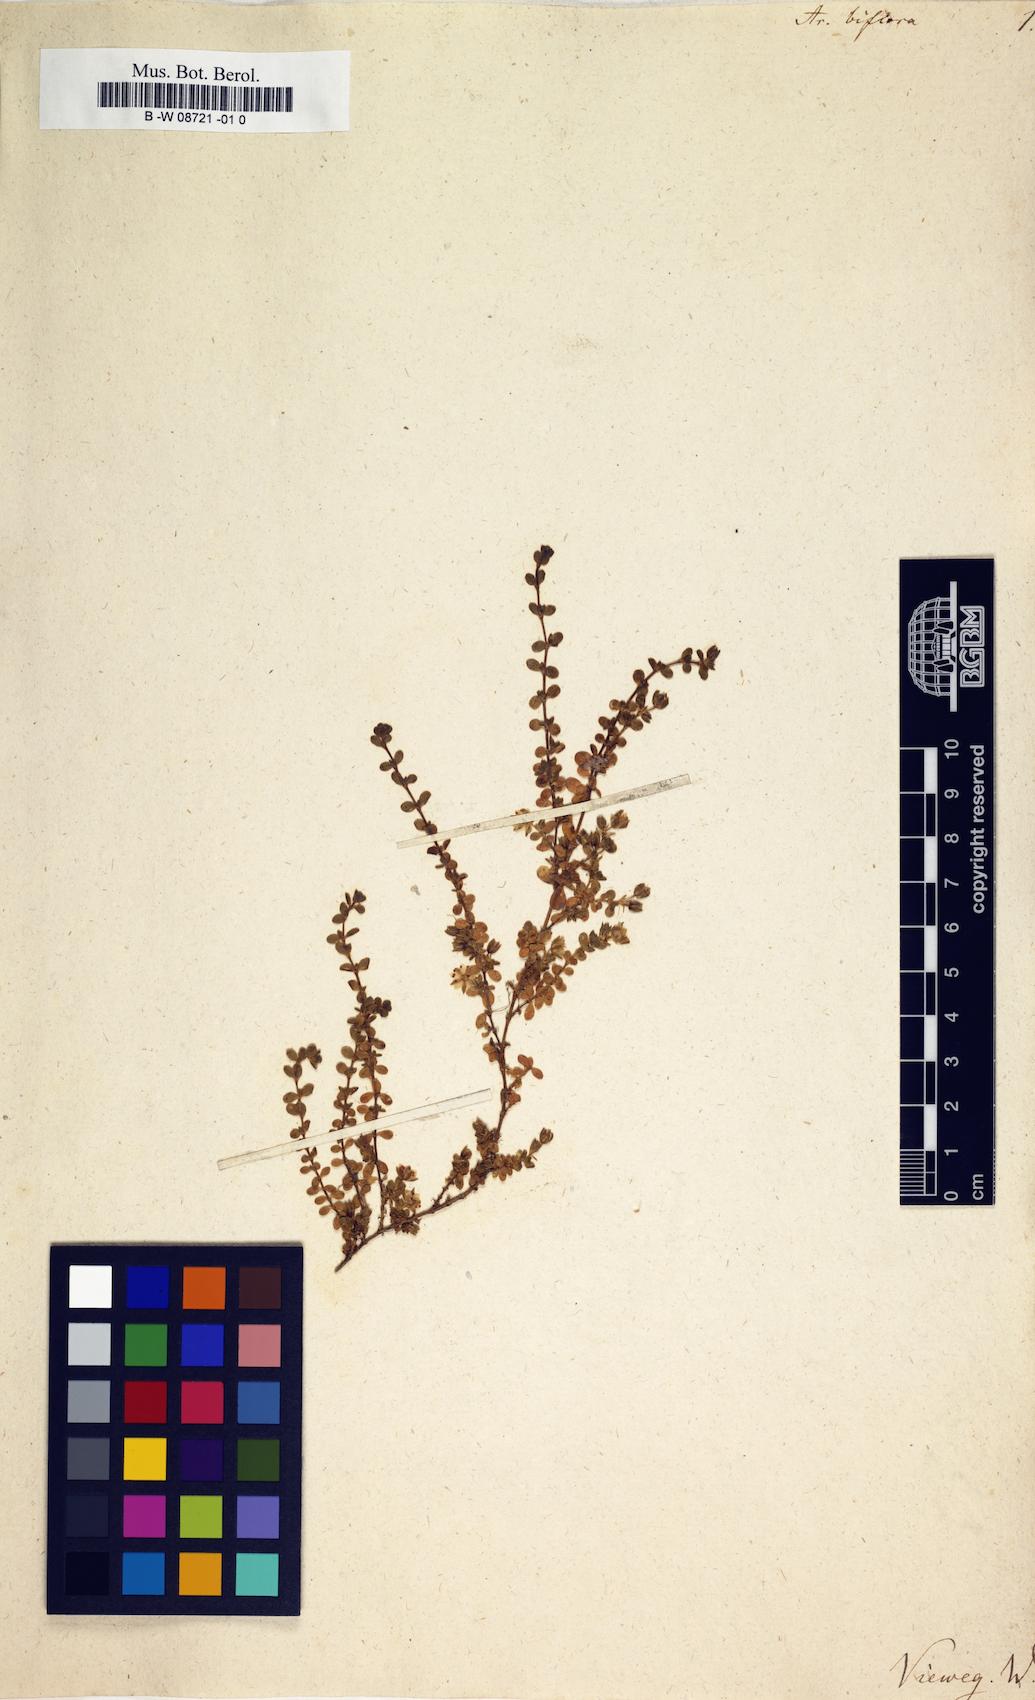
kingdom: Plantae
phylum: Tracheophyta
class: Magnoliopsida
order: Caryophyllales
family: Caryophyllaceae
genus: Arenaria
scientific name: Arenaria biflora
